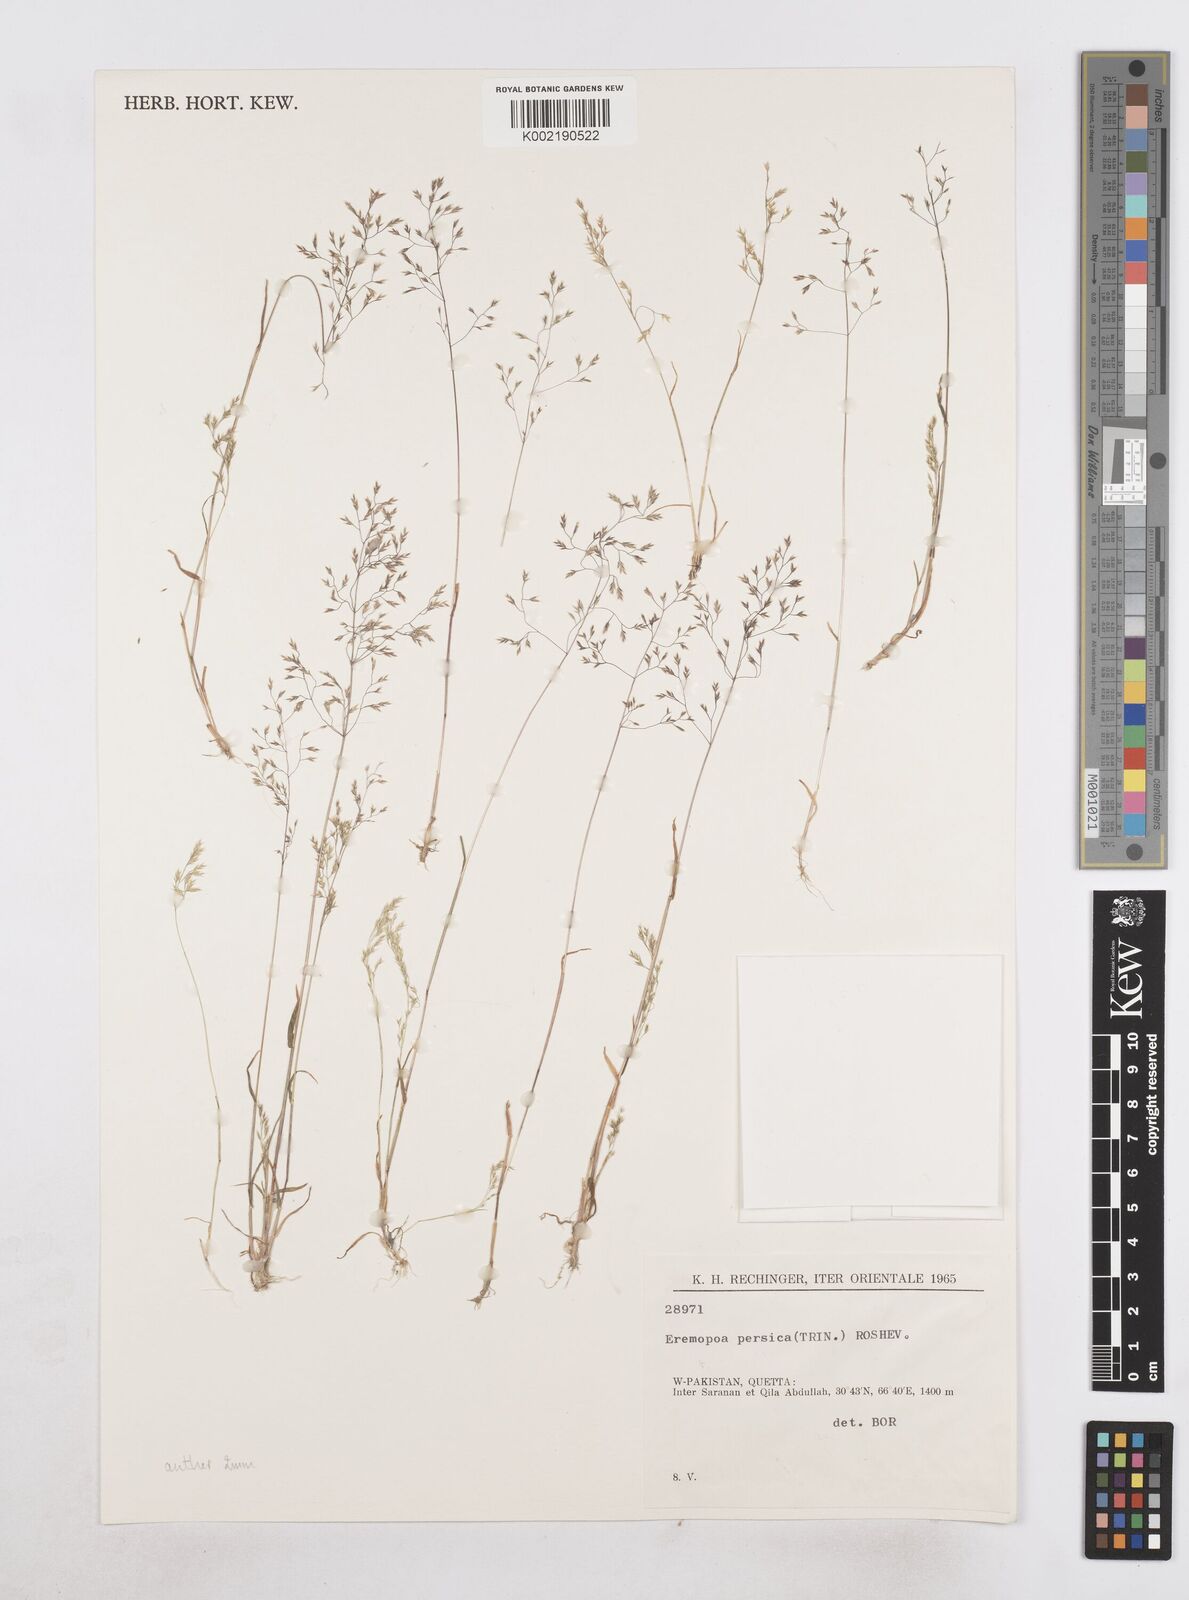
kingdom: Plantae
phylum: Tracheophyta
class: Liliopsida
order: Poales
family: Poaceae
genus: Poa
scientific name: Poa persica
